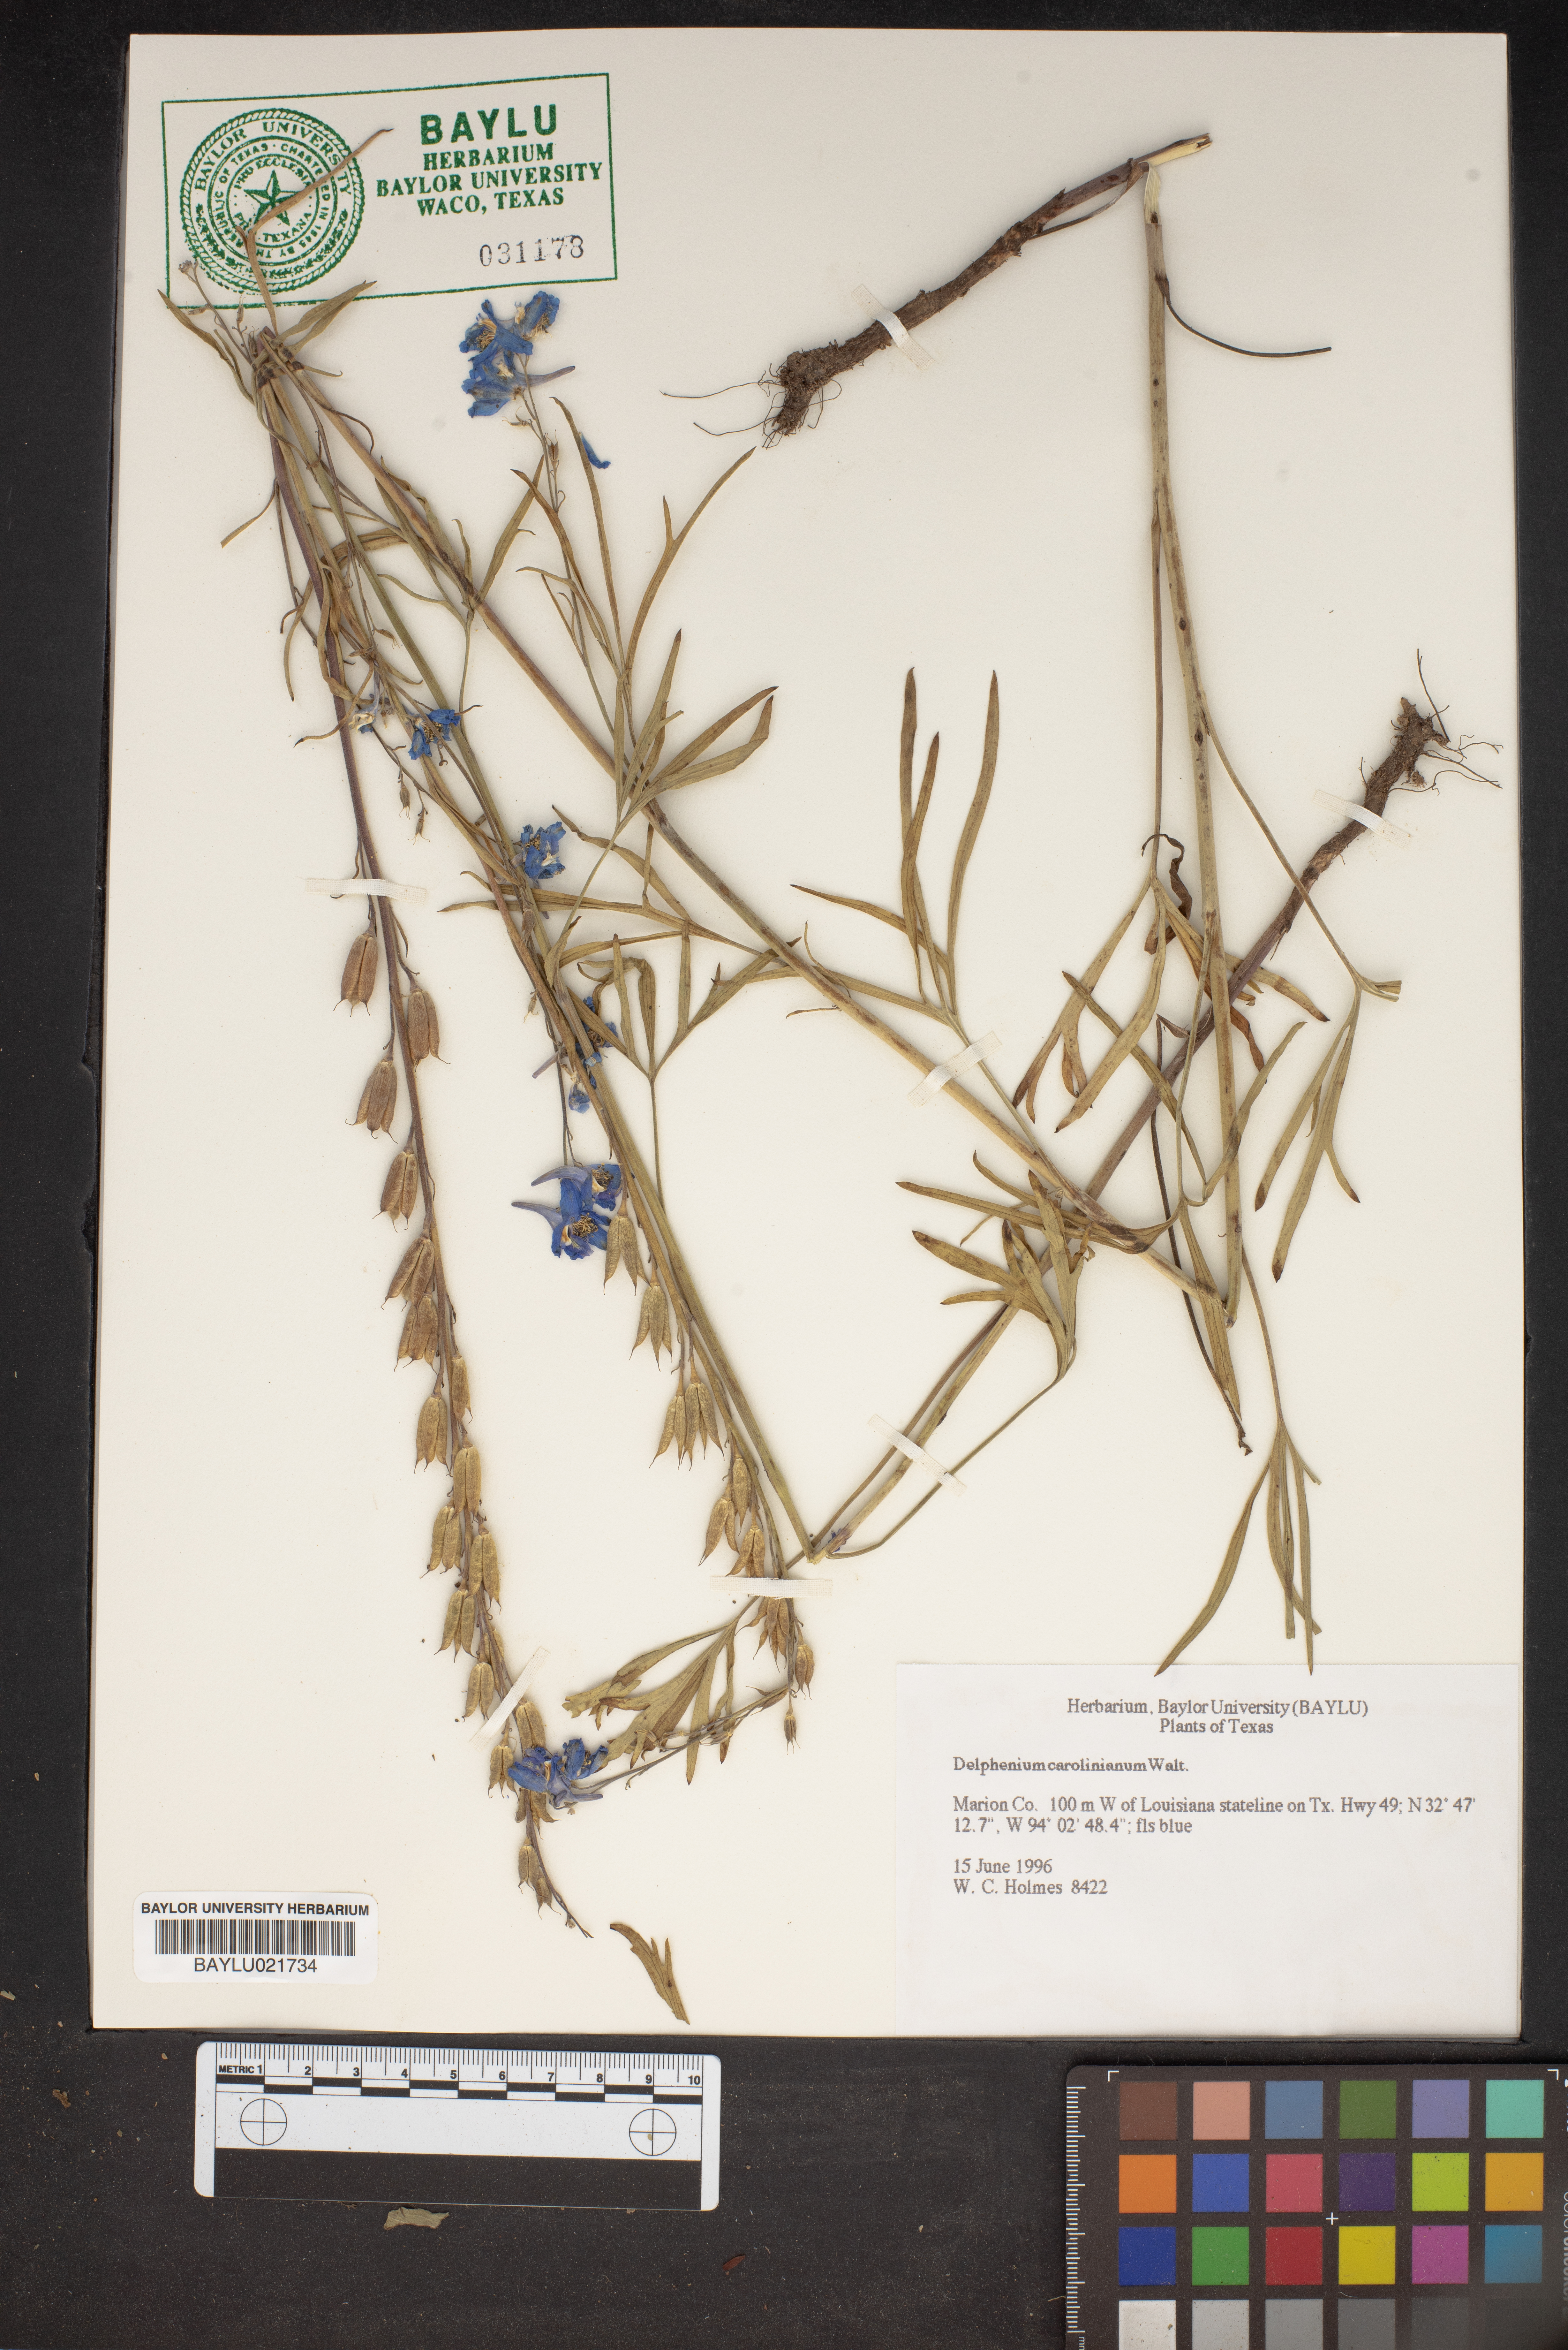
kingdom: Plantae
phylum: Tracheophyta
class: Magnoliopsida
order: Ranunculales
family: Ranunculaceae
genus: Delphinium
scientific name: Delphinium carolinianum
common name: Carolina larkspur
